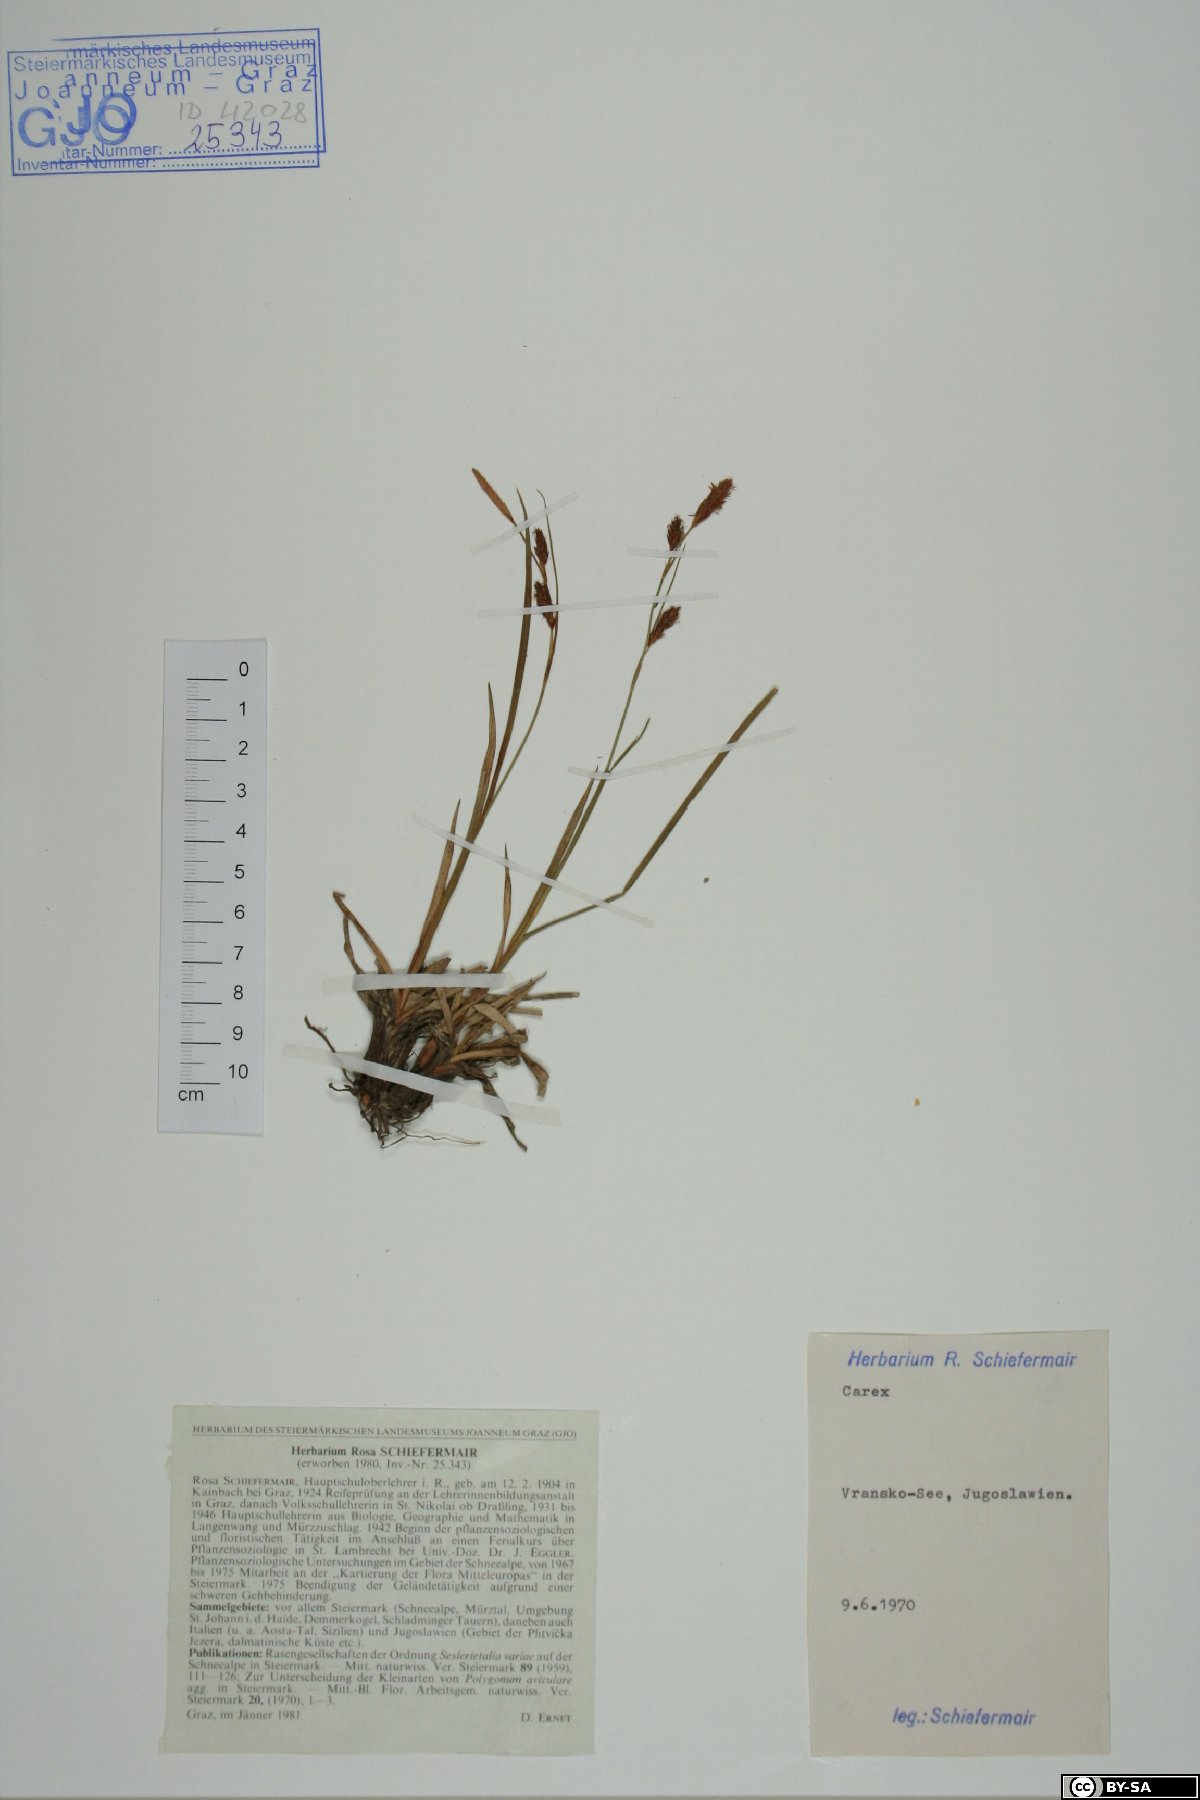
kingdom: Plantae
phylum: Tracheophyta
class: Liliopsida
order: Poales
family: Cyperaceae
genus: Carex
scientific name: Carex
